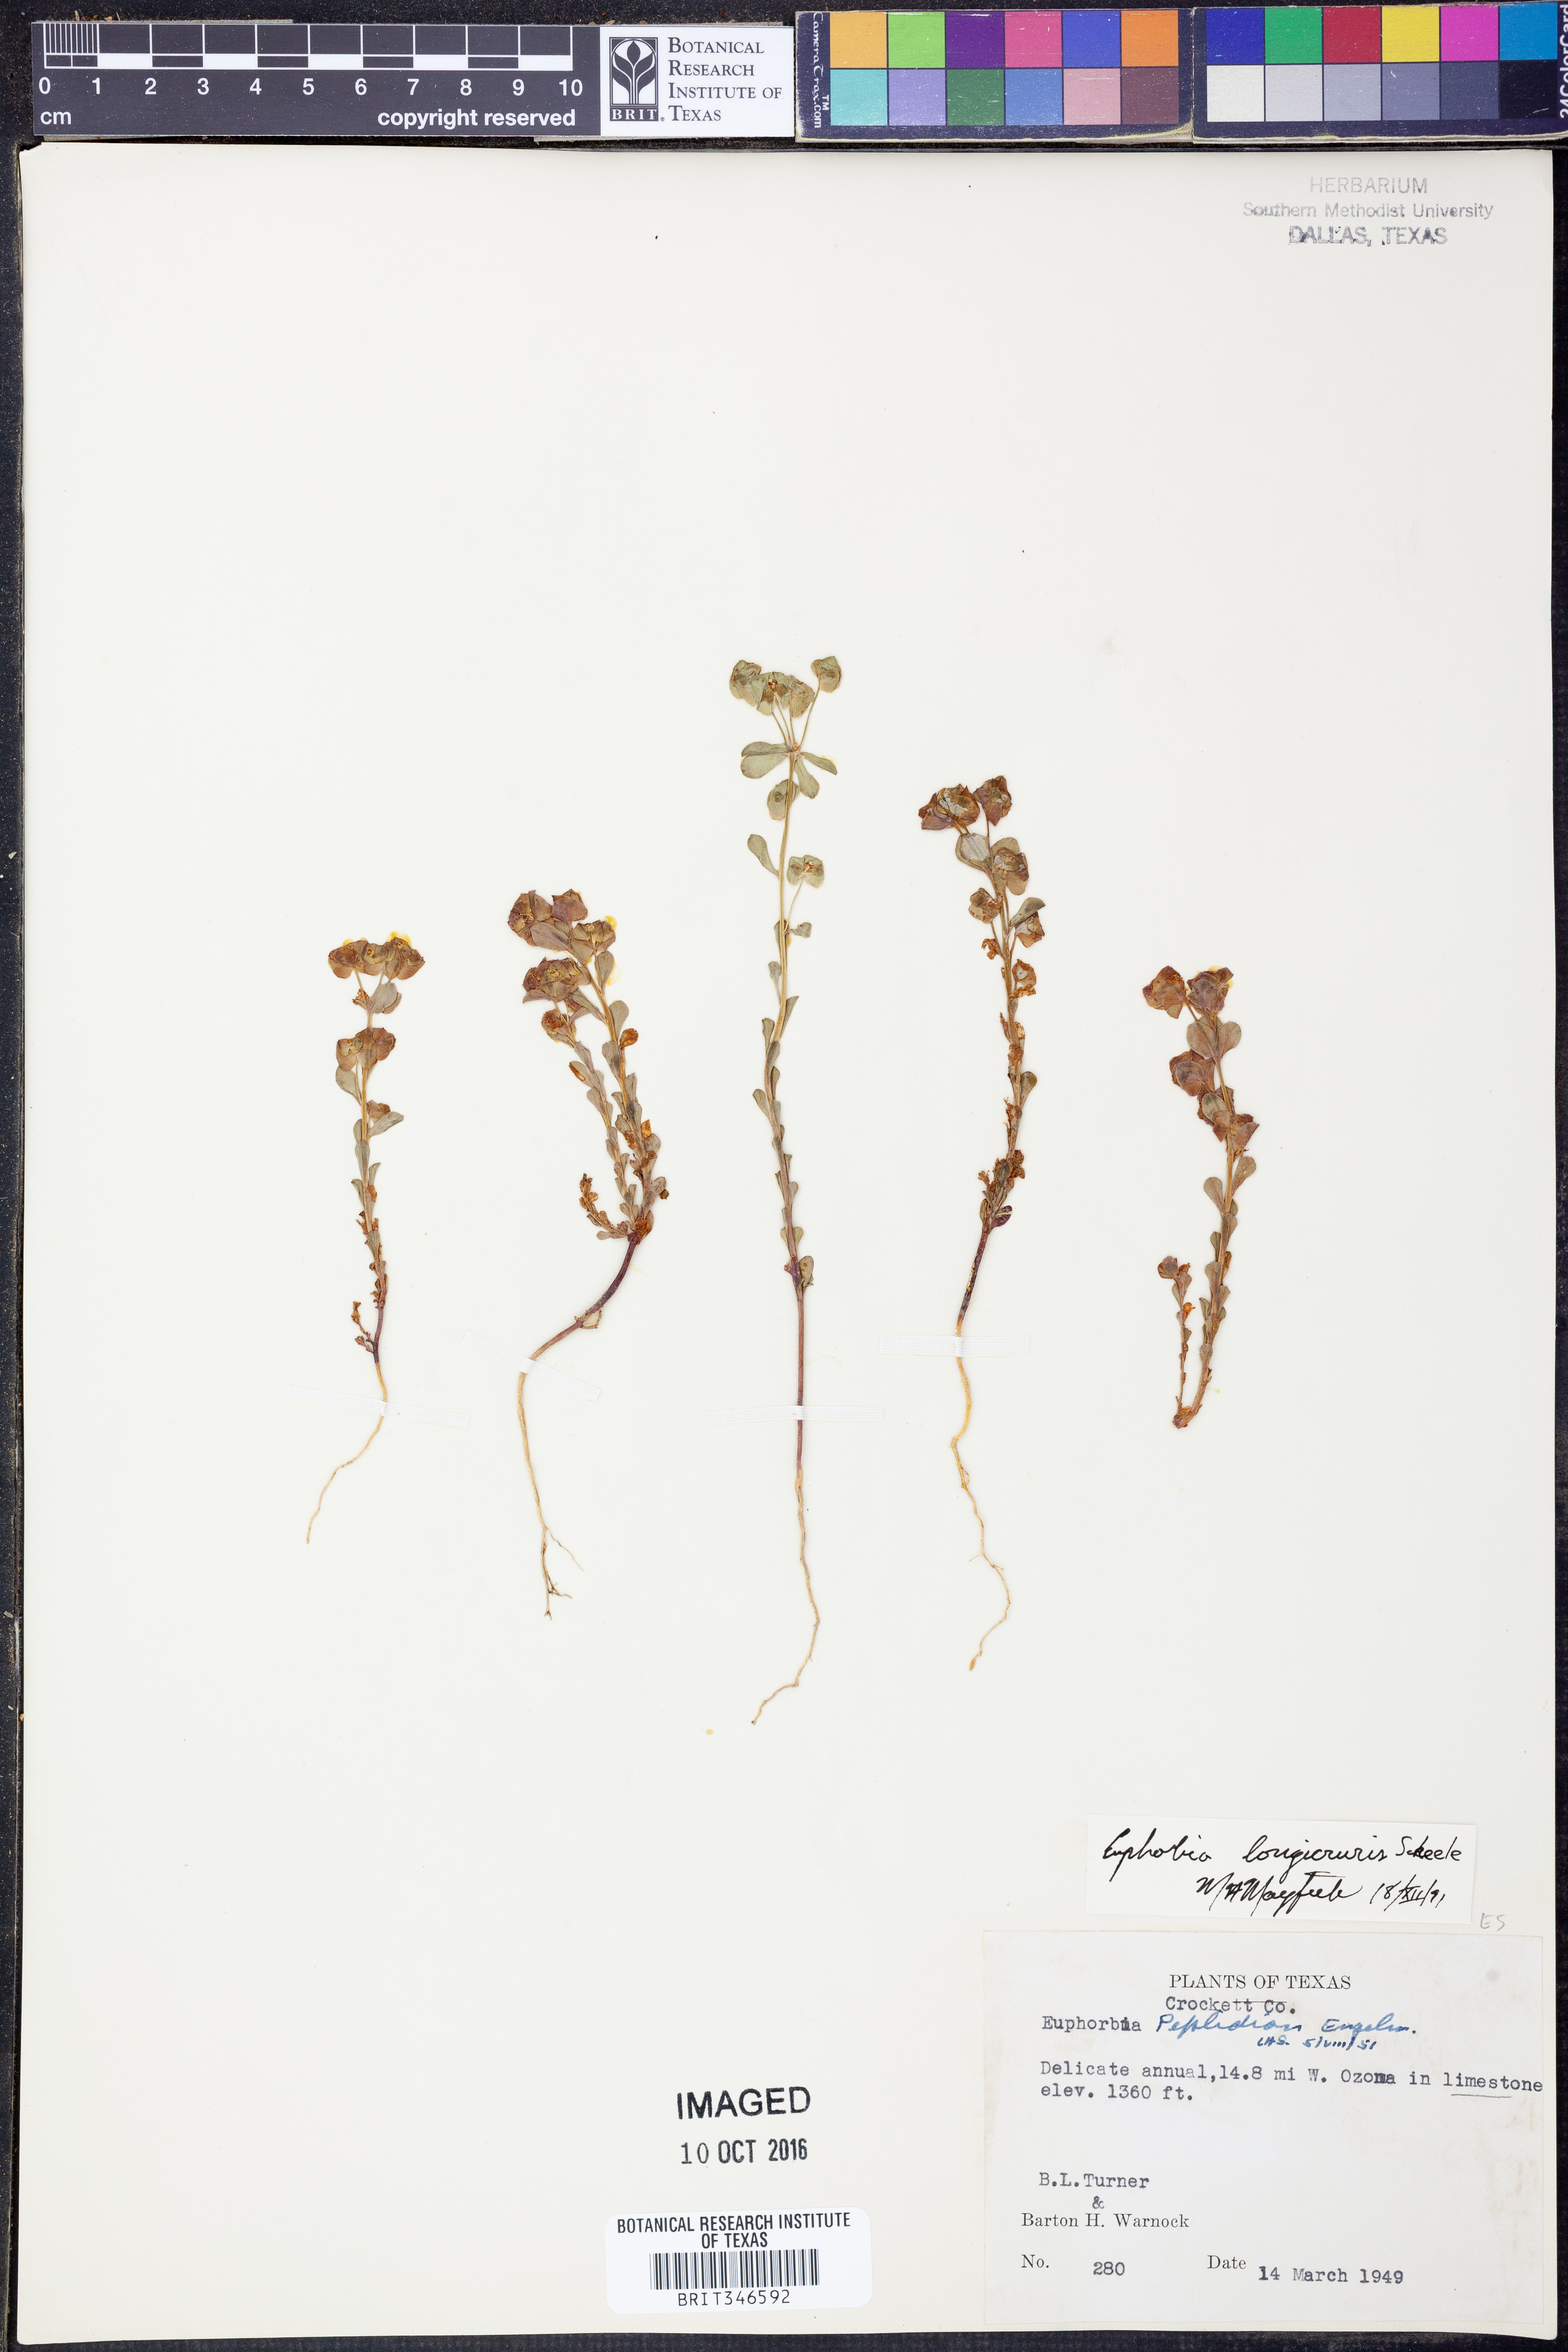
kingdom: Plantae
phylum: Tracheophyta
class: Magnoliopsida
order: Malpighiales
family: Euphorbiaceae
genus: Euphorbia
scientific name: Euphorbia longicruris
